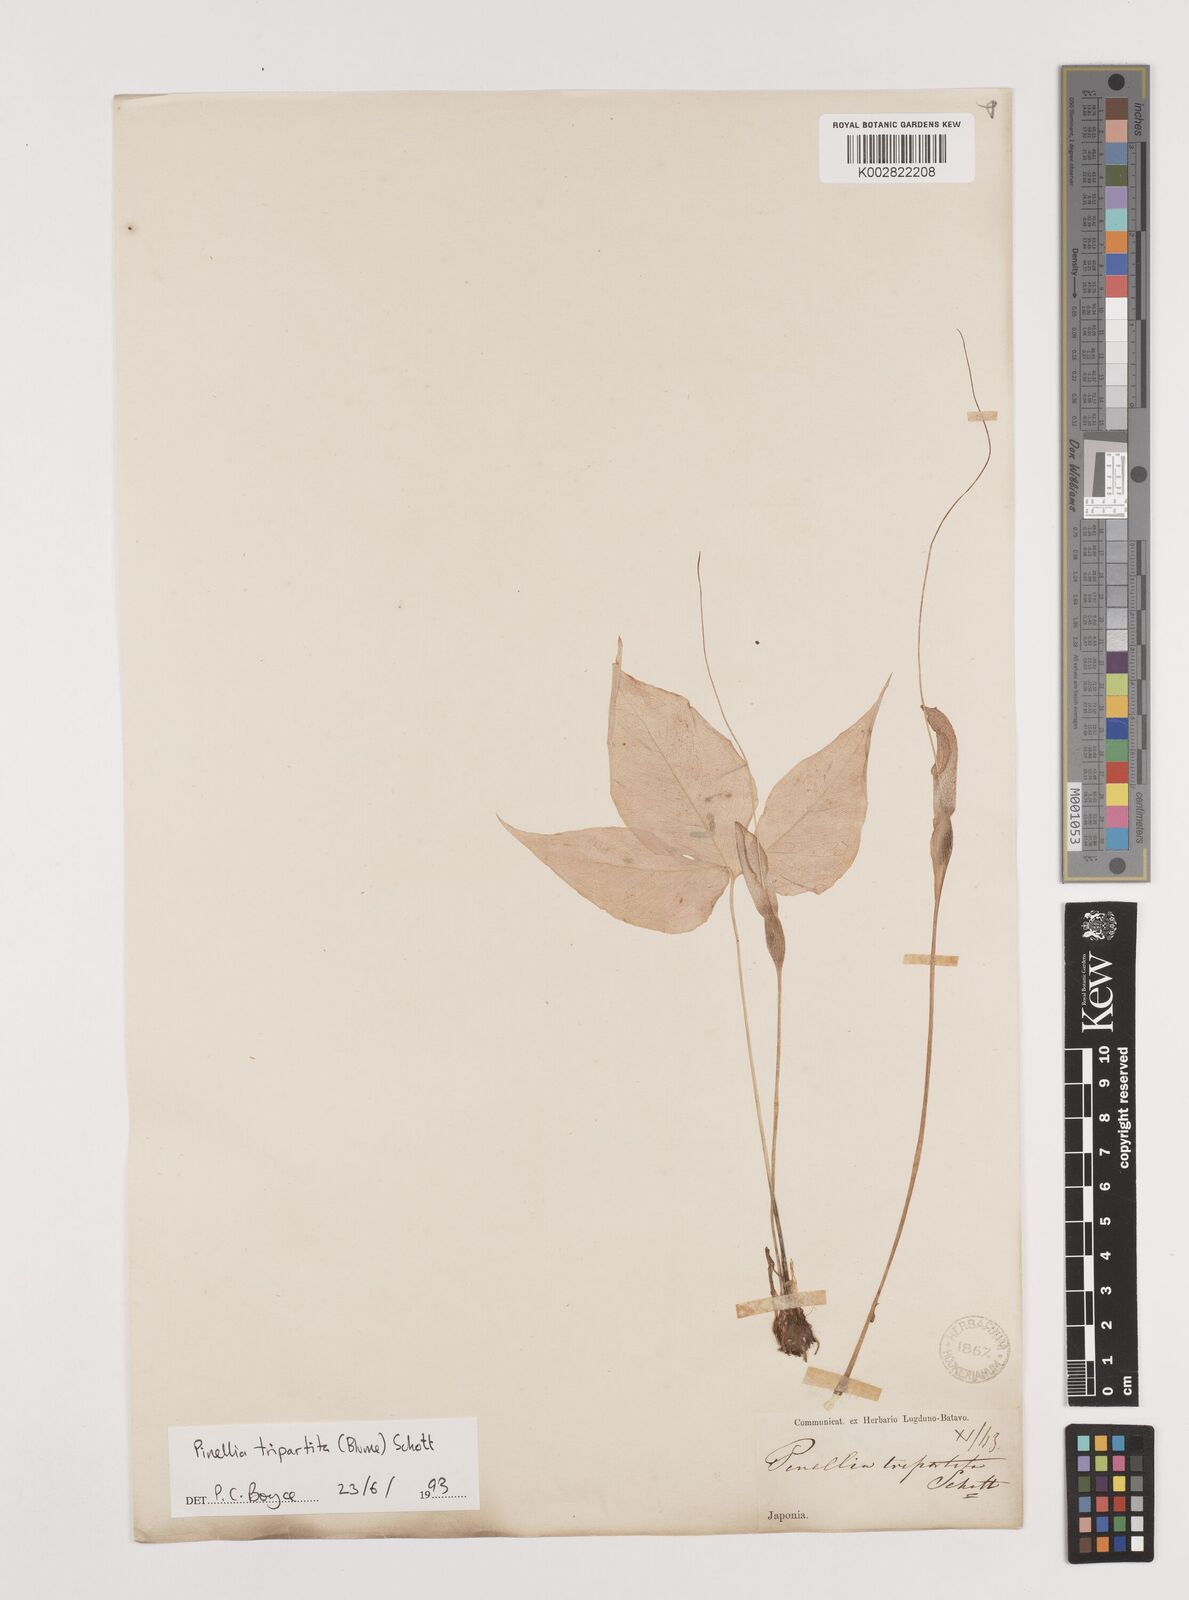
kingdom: Plantae
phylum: Tracheophyta
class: Liliopsida
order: Alismatales
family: Araceae
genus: Pinellia
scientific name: Pinellia tripartita
